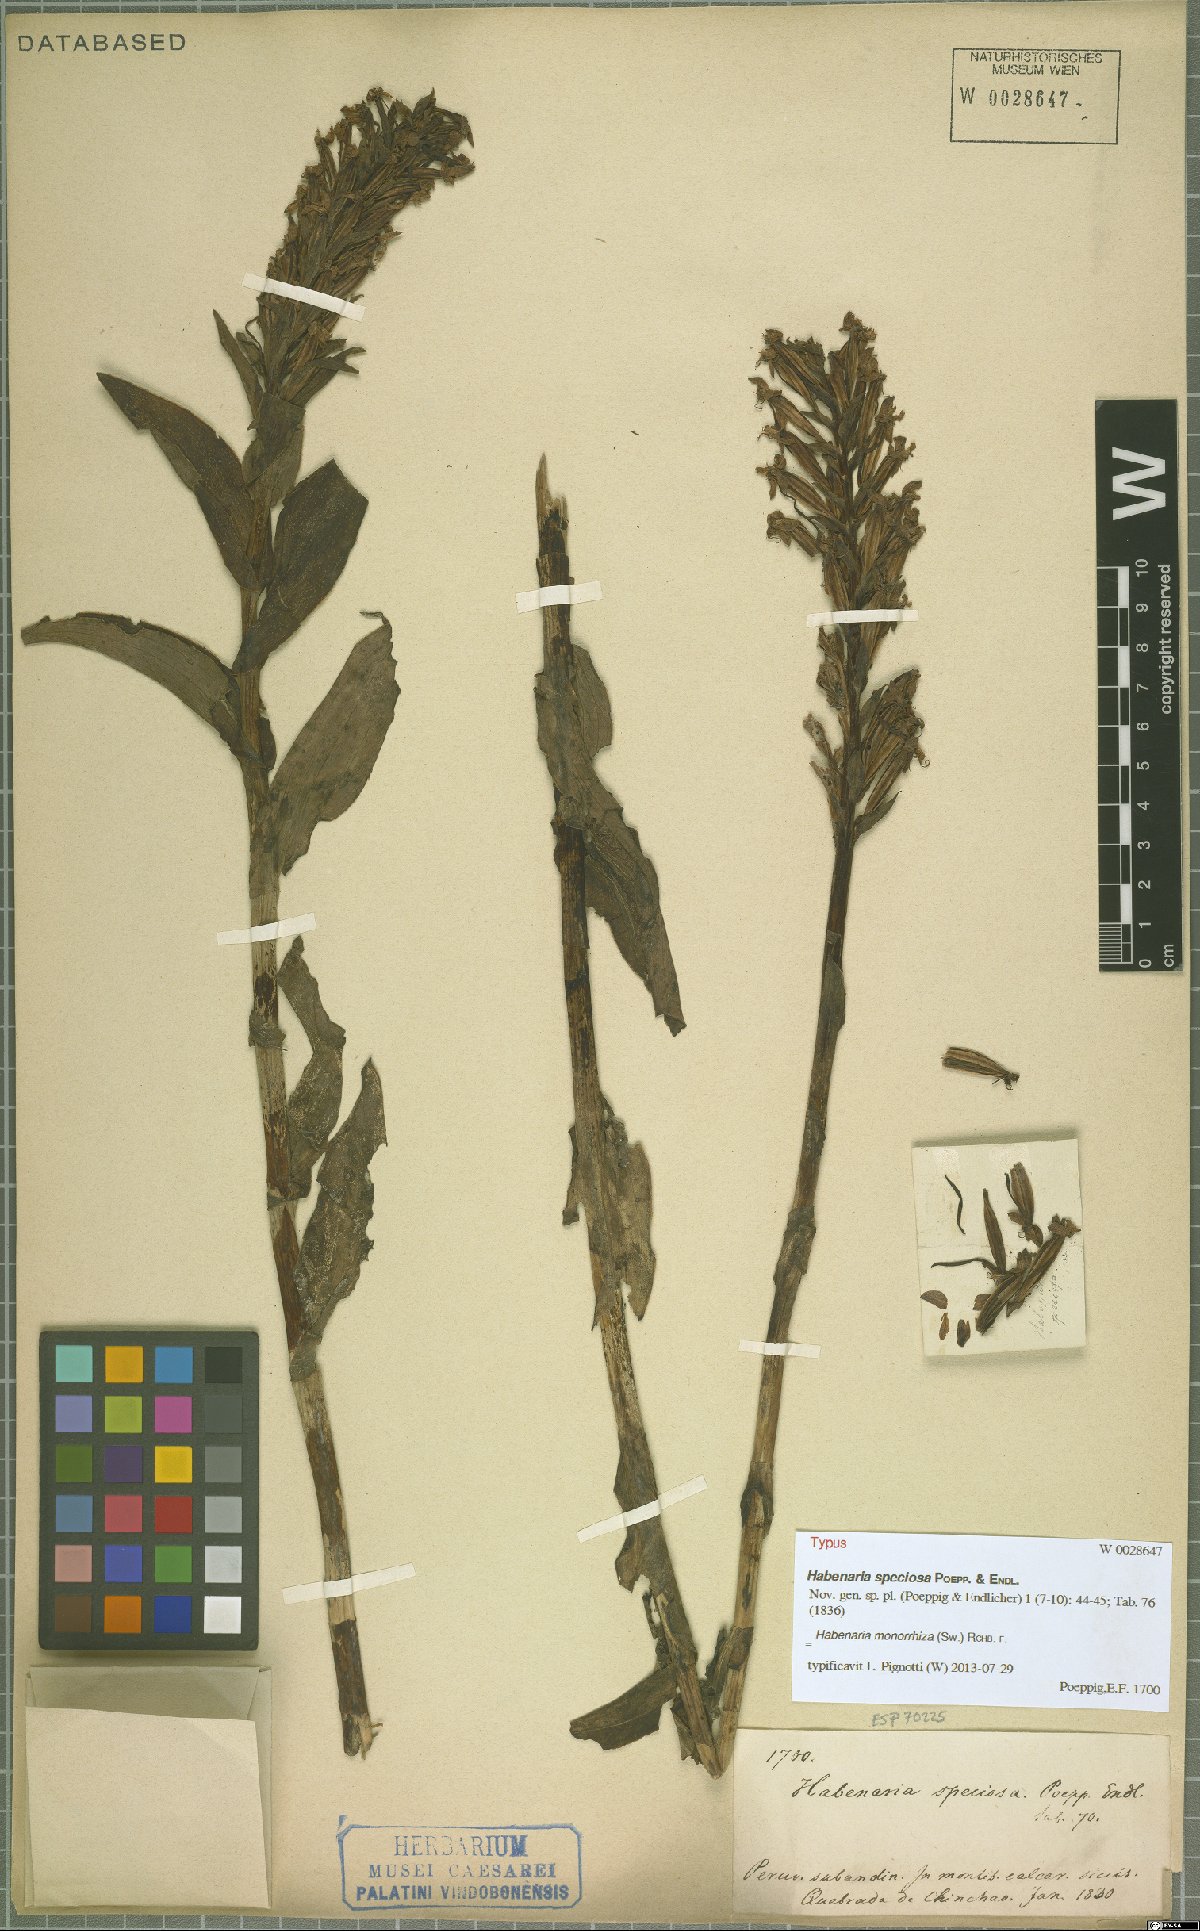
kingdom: Plantae
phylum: Tracheophyta
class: Liliopsida
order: Asparagales
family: Orchidaceae
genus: Habenaria
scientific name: Habenaria monorrhiza
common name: Tropical bog orchid
